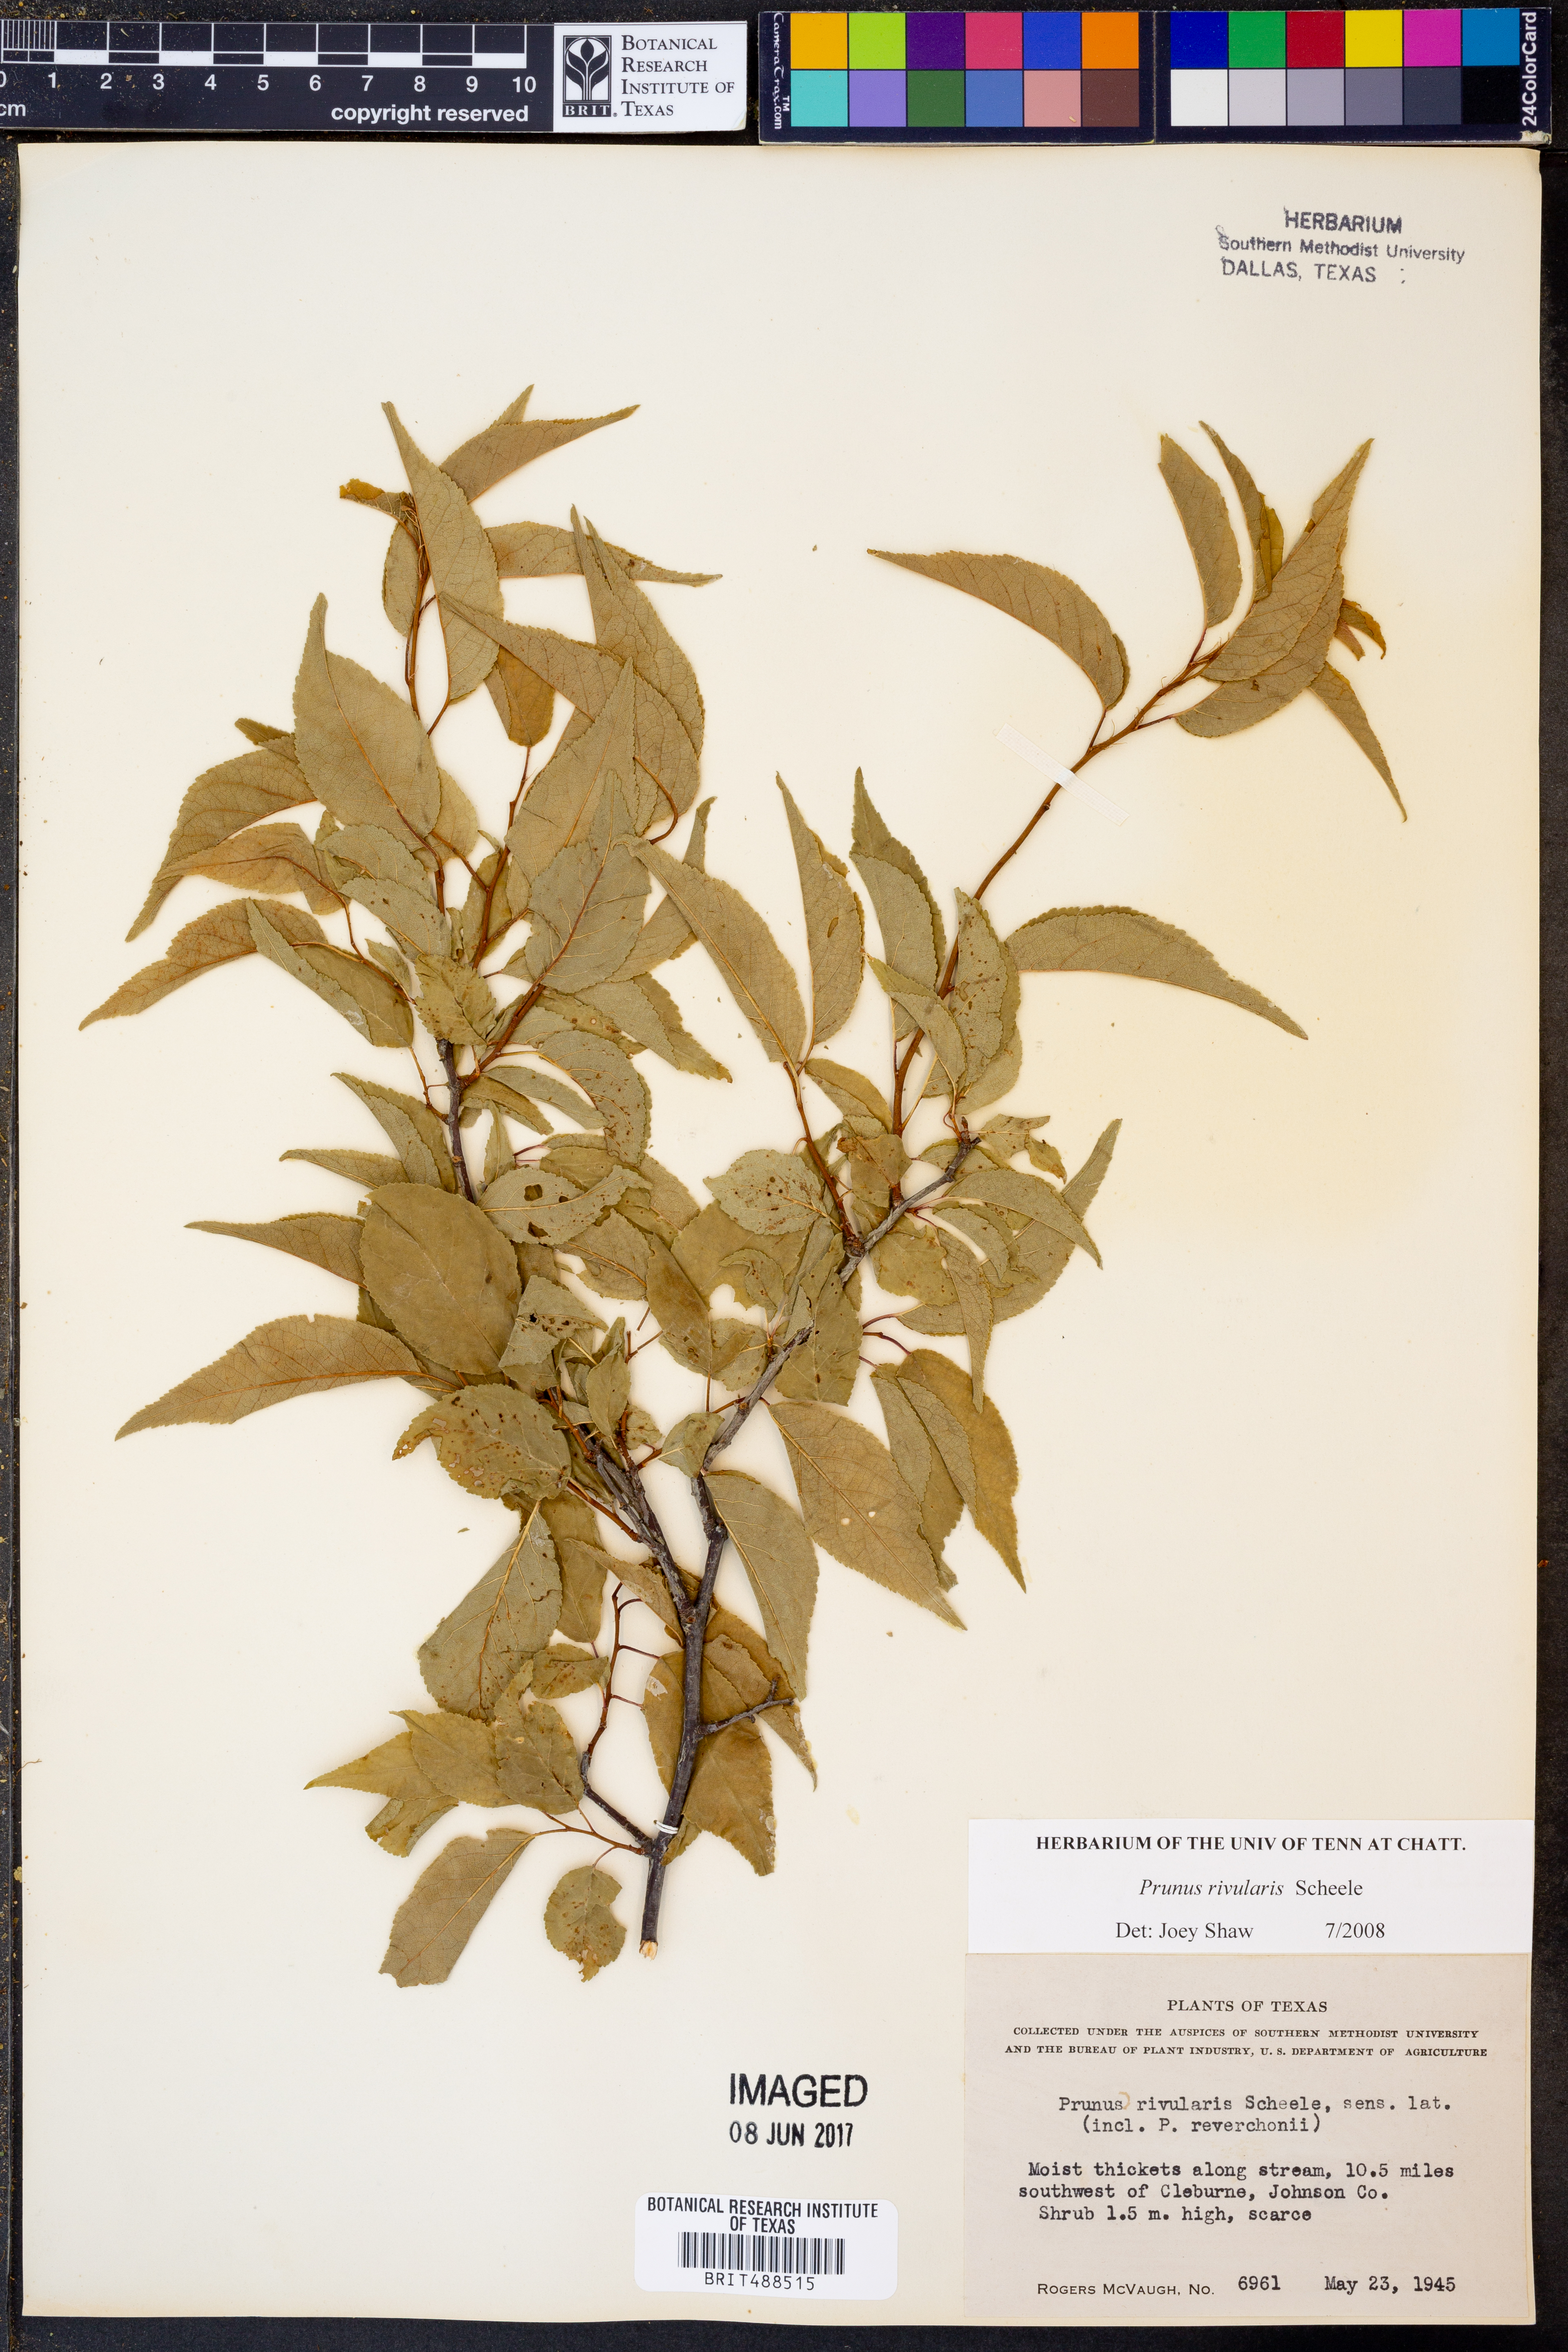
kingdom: Plantae
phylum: Tracheophyta
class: Magnoliopsida
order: Rosales
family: Rosaceae
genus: Prunus
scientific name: Prunus rivularis
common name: Creek plum
